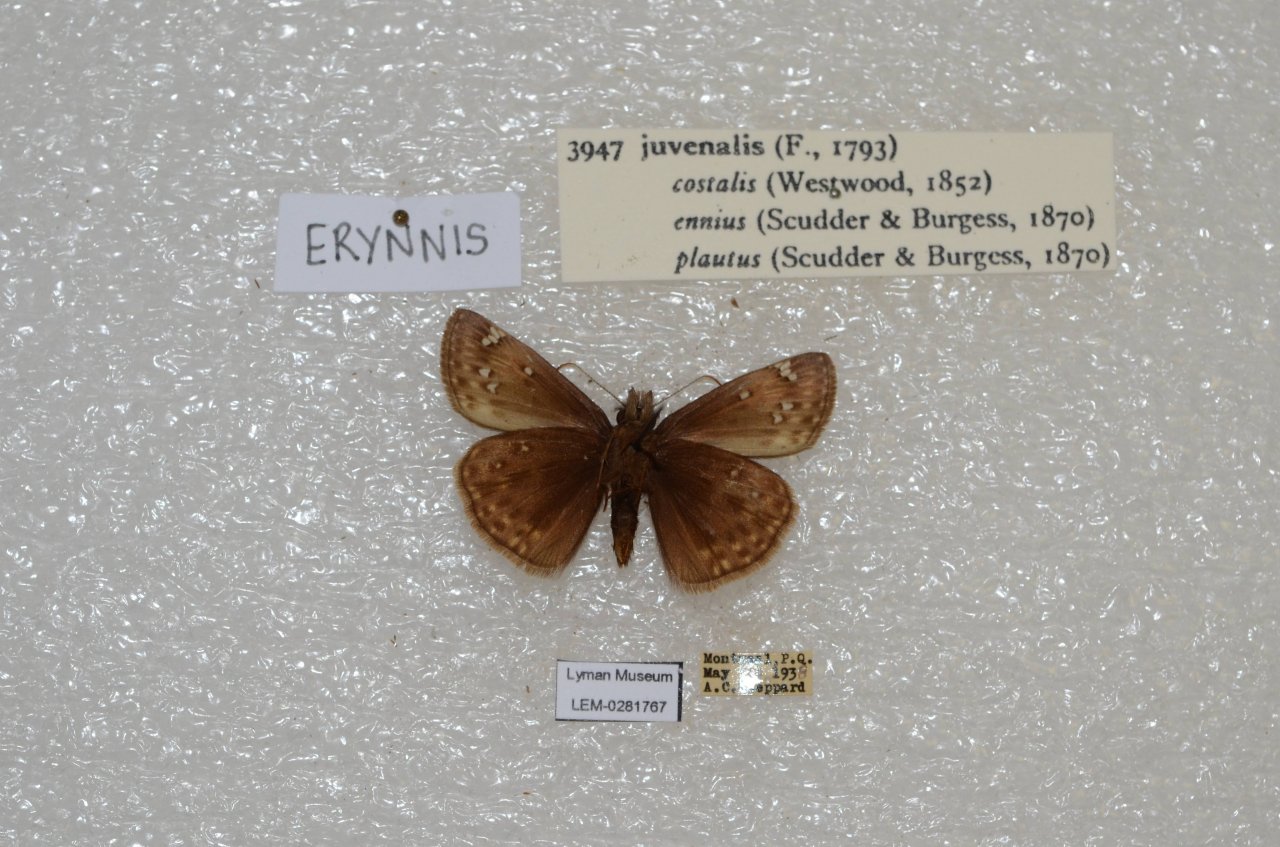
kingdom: Animalia
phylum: Arthropoda
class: Insecta
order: Lepidoptera
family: Hesperiidae
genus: Gesta
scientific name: Gesta
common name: Juvenal's Duskywing
